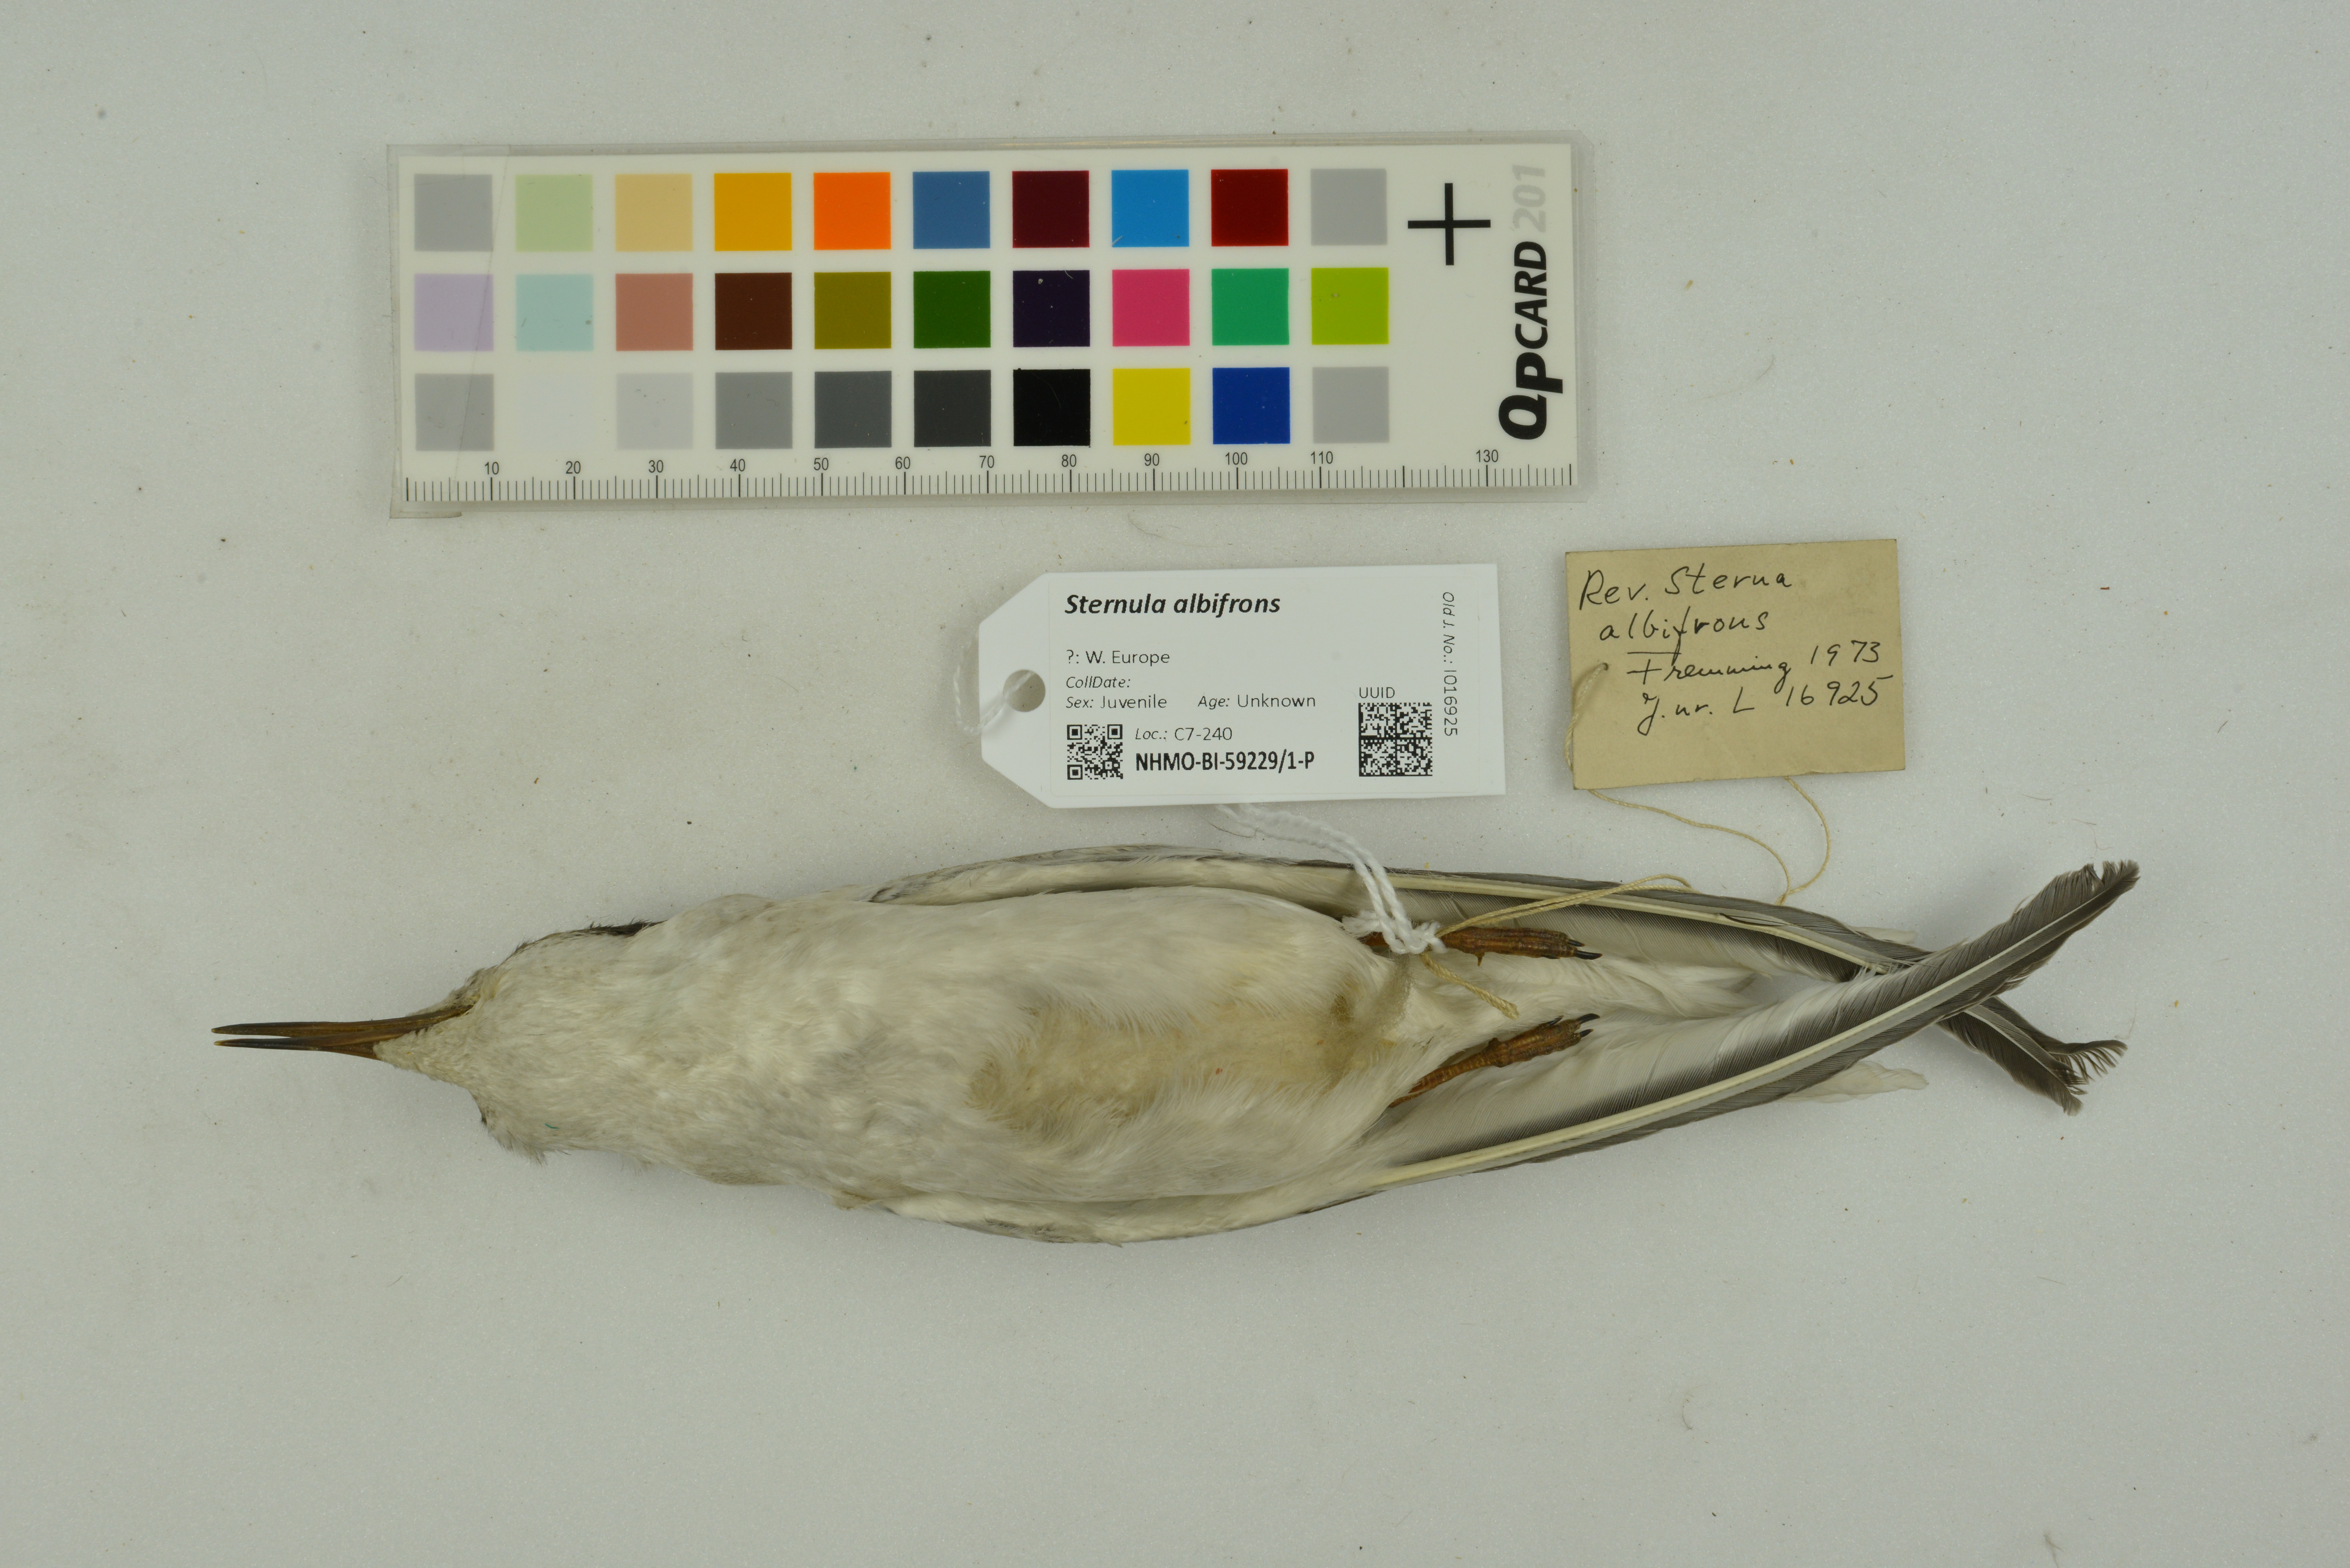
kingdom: Animalia
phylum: Chordata
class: Aves
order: Charadriiformes
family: Laridae
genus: Sternula
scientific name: Sternula albifrons
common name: Little tern
